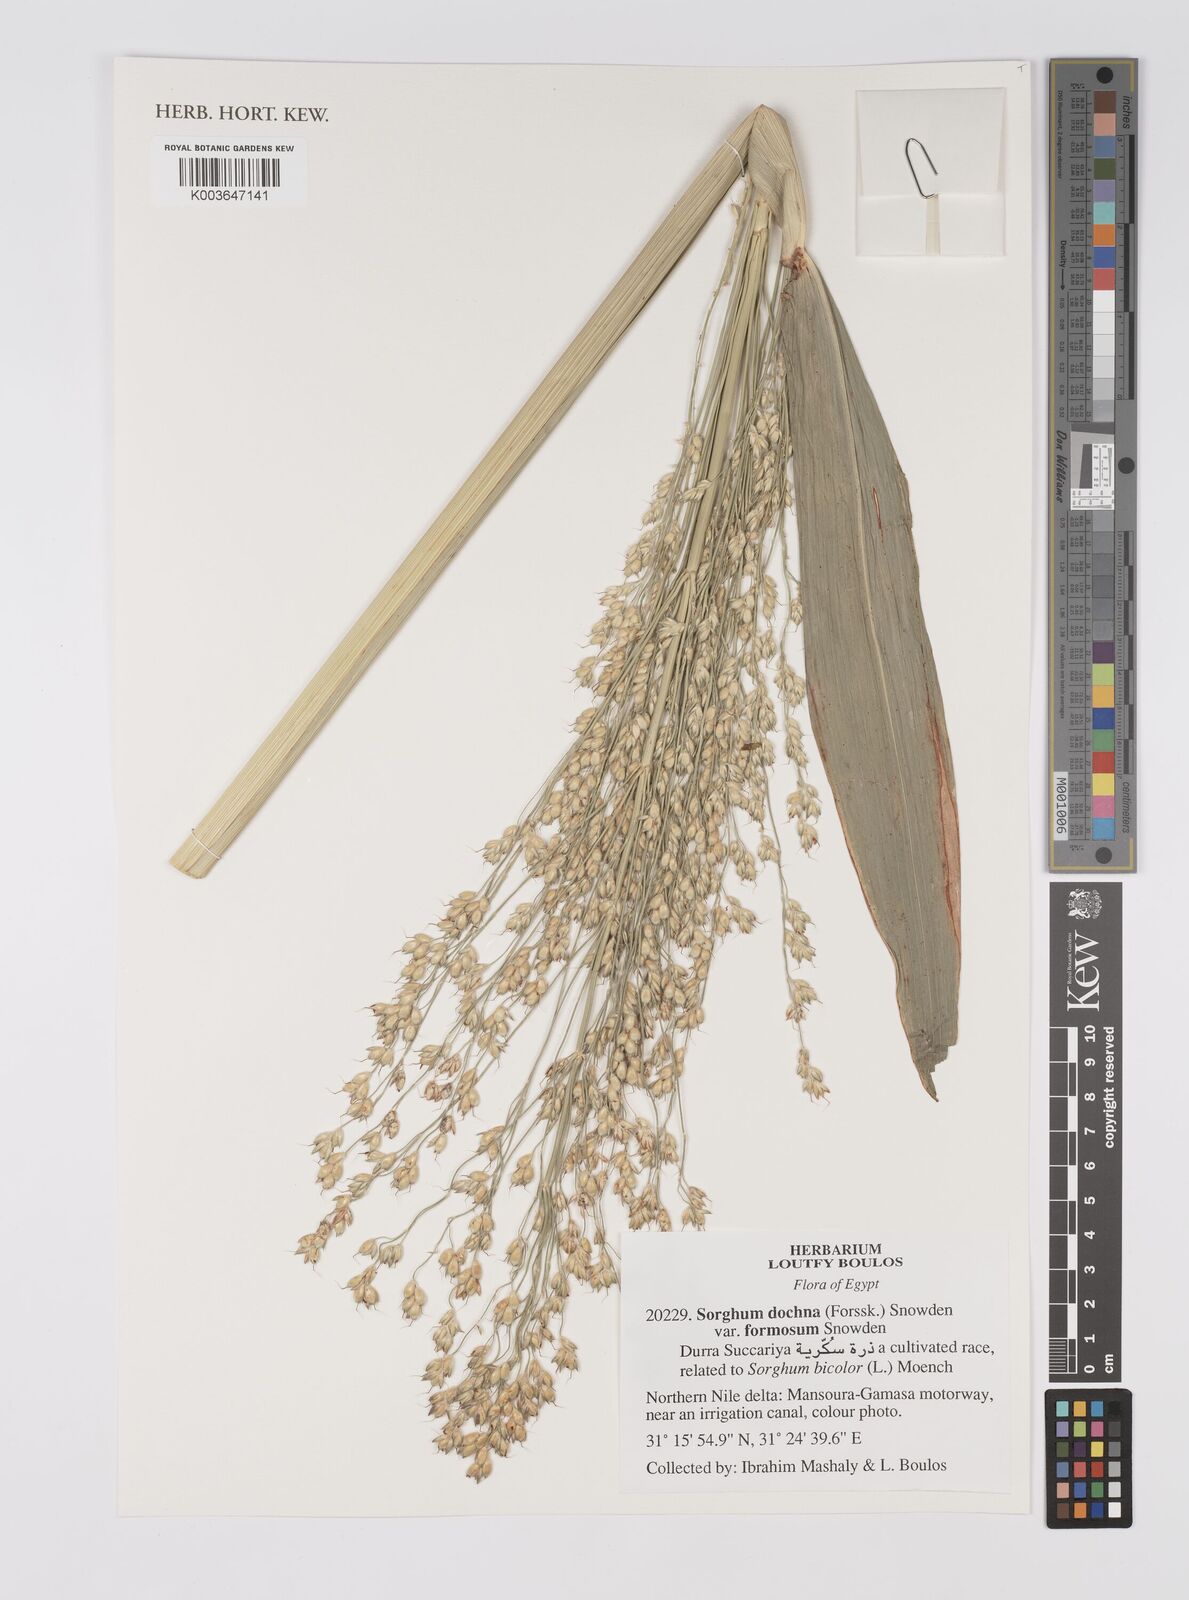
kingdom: Plantae
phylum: Tracheophyta
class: Liliopsida
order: Poales
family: Poaceae
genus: Sorghum
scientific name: Sorghum bicolor
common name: Sorghum
